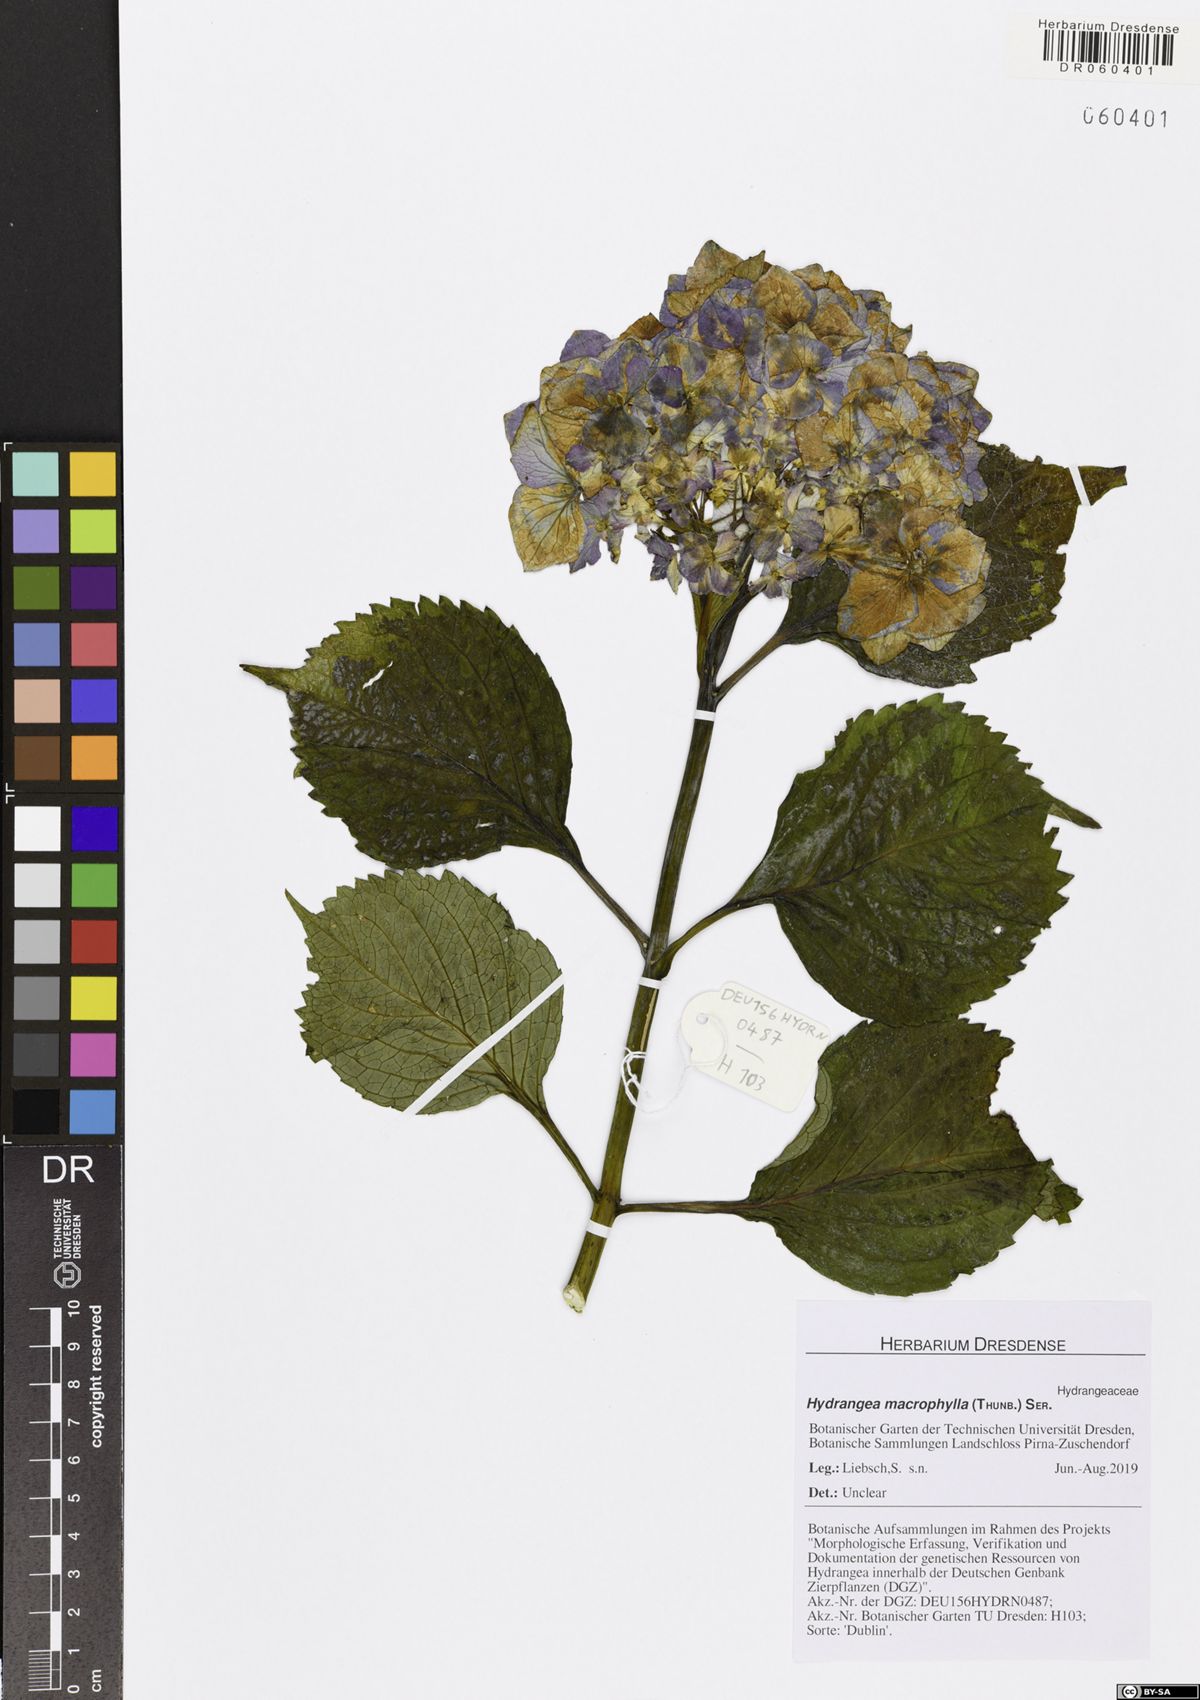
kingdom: Plantae
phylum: Tracheophyta
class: Magnoliopsida
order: Cornales
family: Hydrangeaceae
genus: Hydrangea
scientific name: Hydrangea macrophylla
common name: Hydrangea
